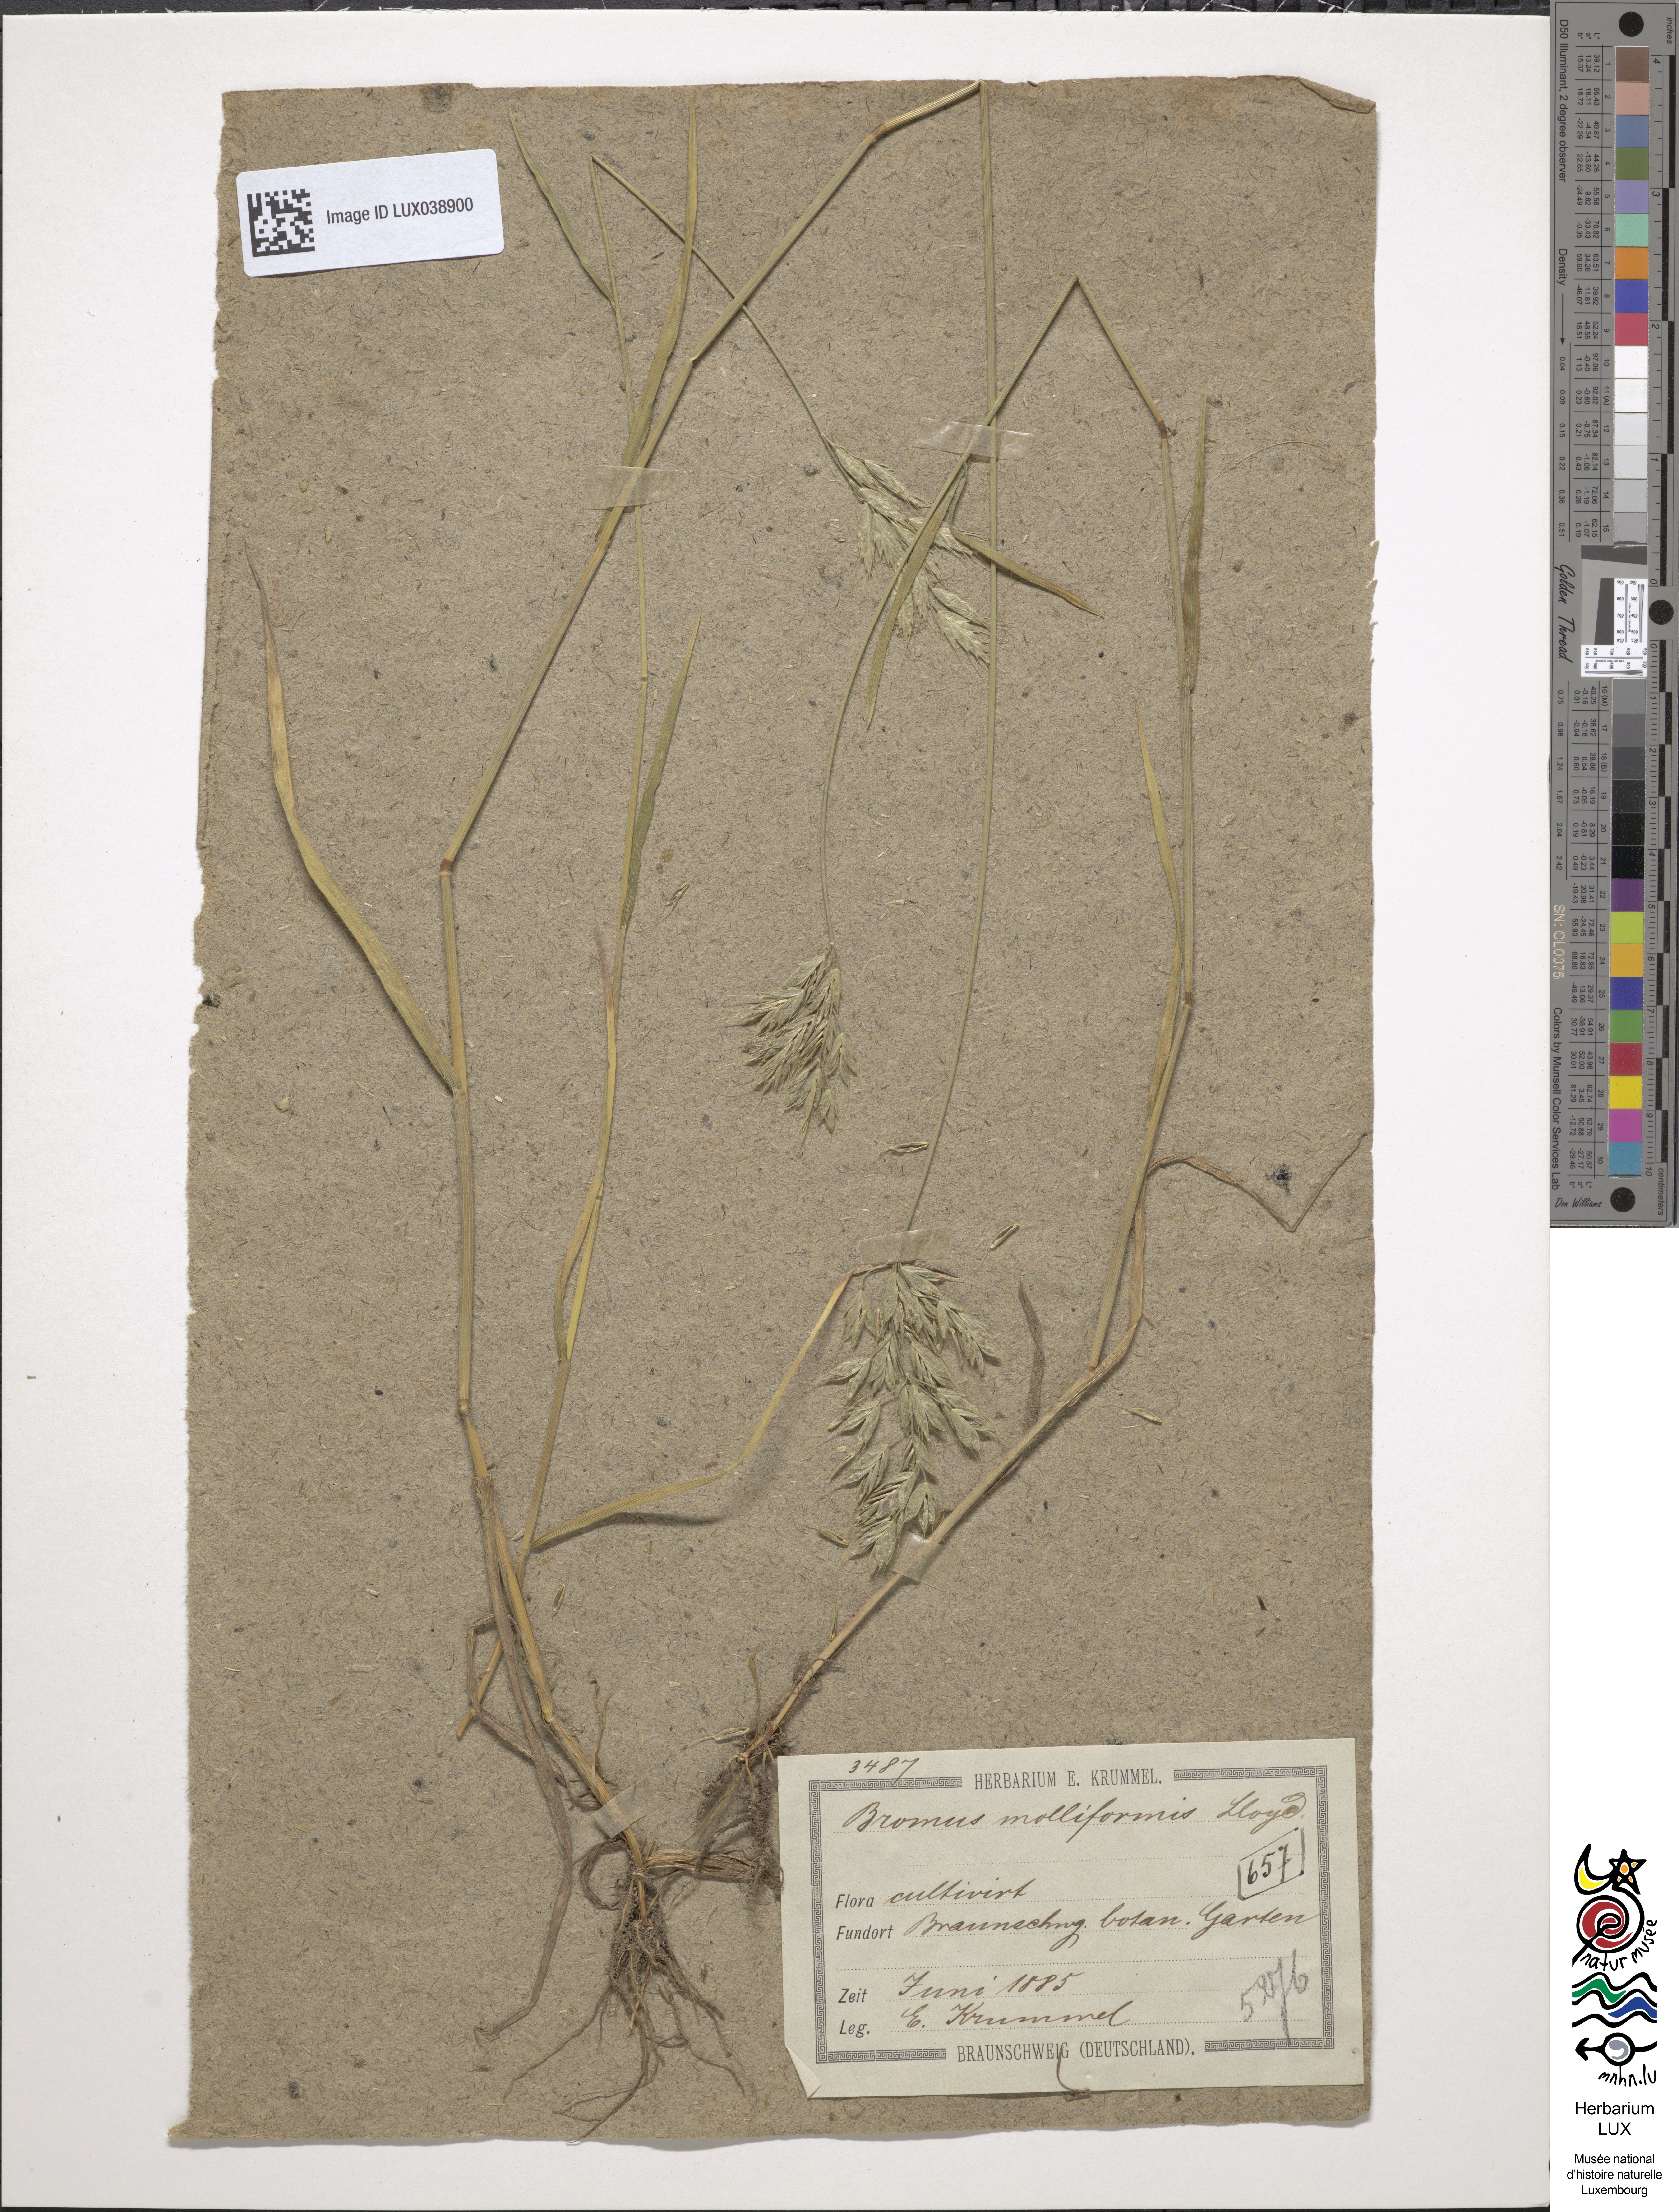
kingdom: Plantae
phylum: Tracheophyta
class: Liliopsida
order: Poales
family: Poaceae
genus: Bromus
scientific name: Bromus hordeaceus
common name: Soft brome
